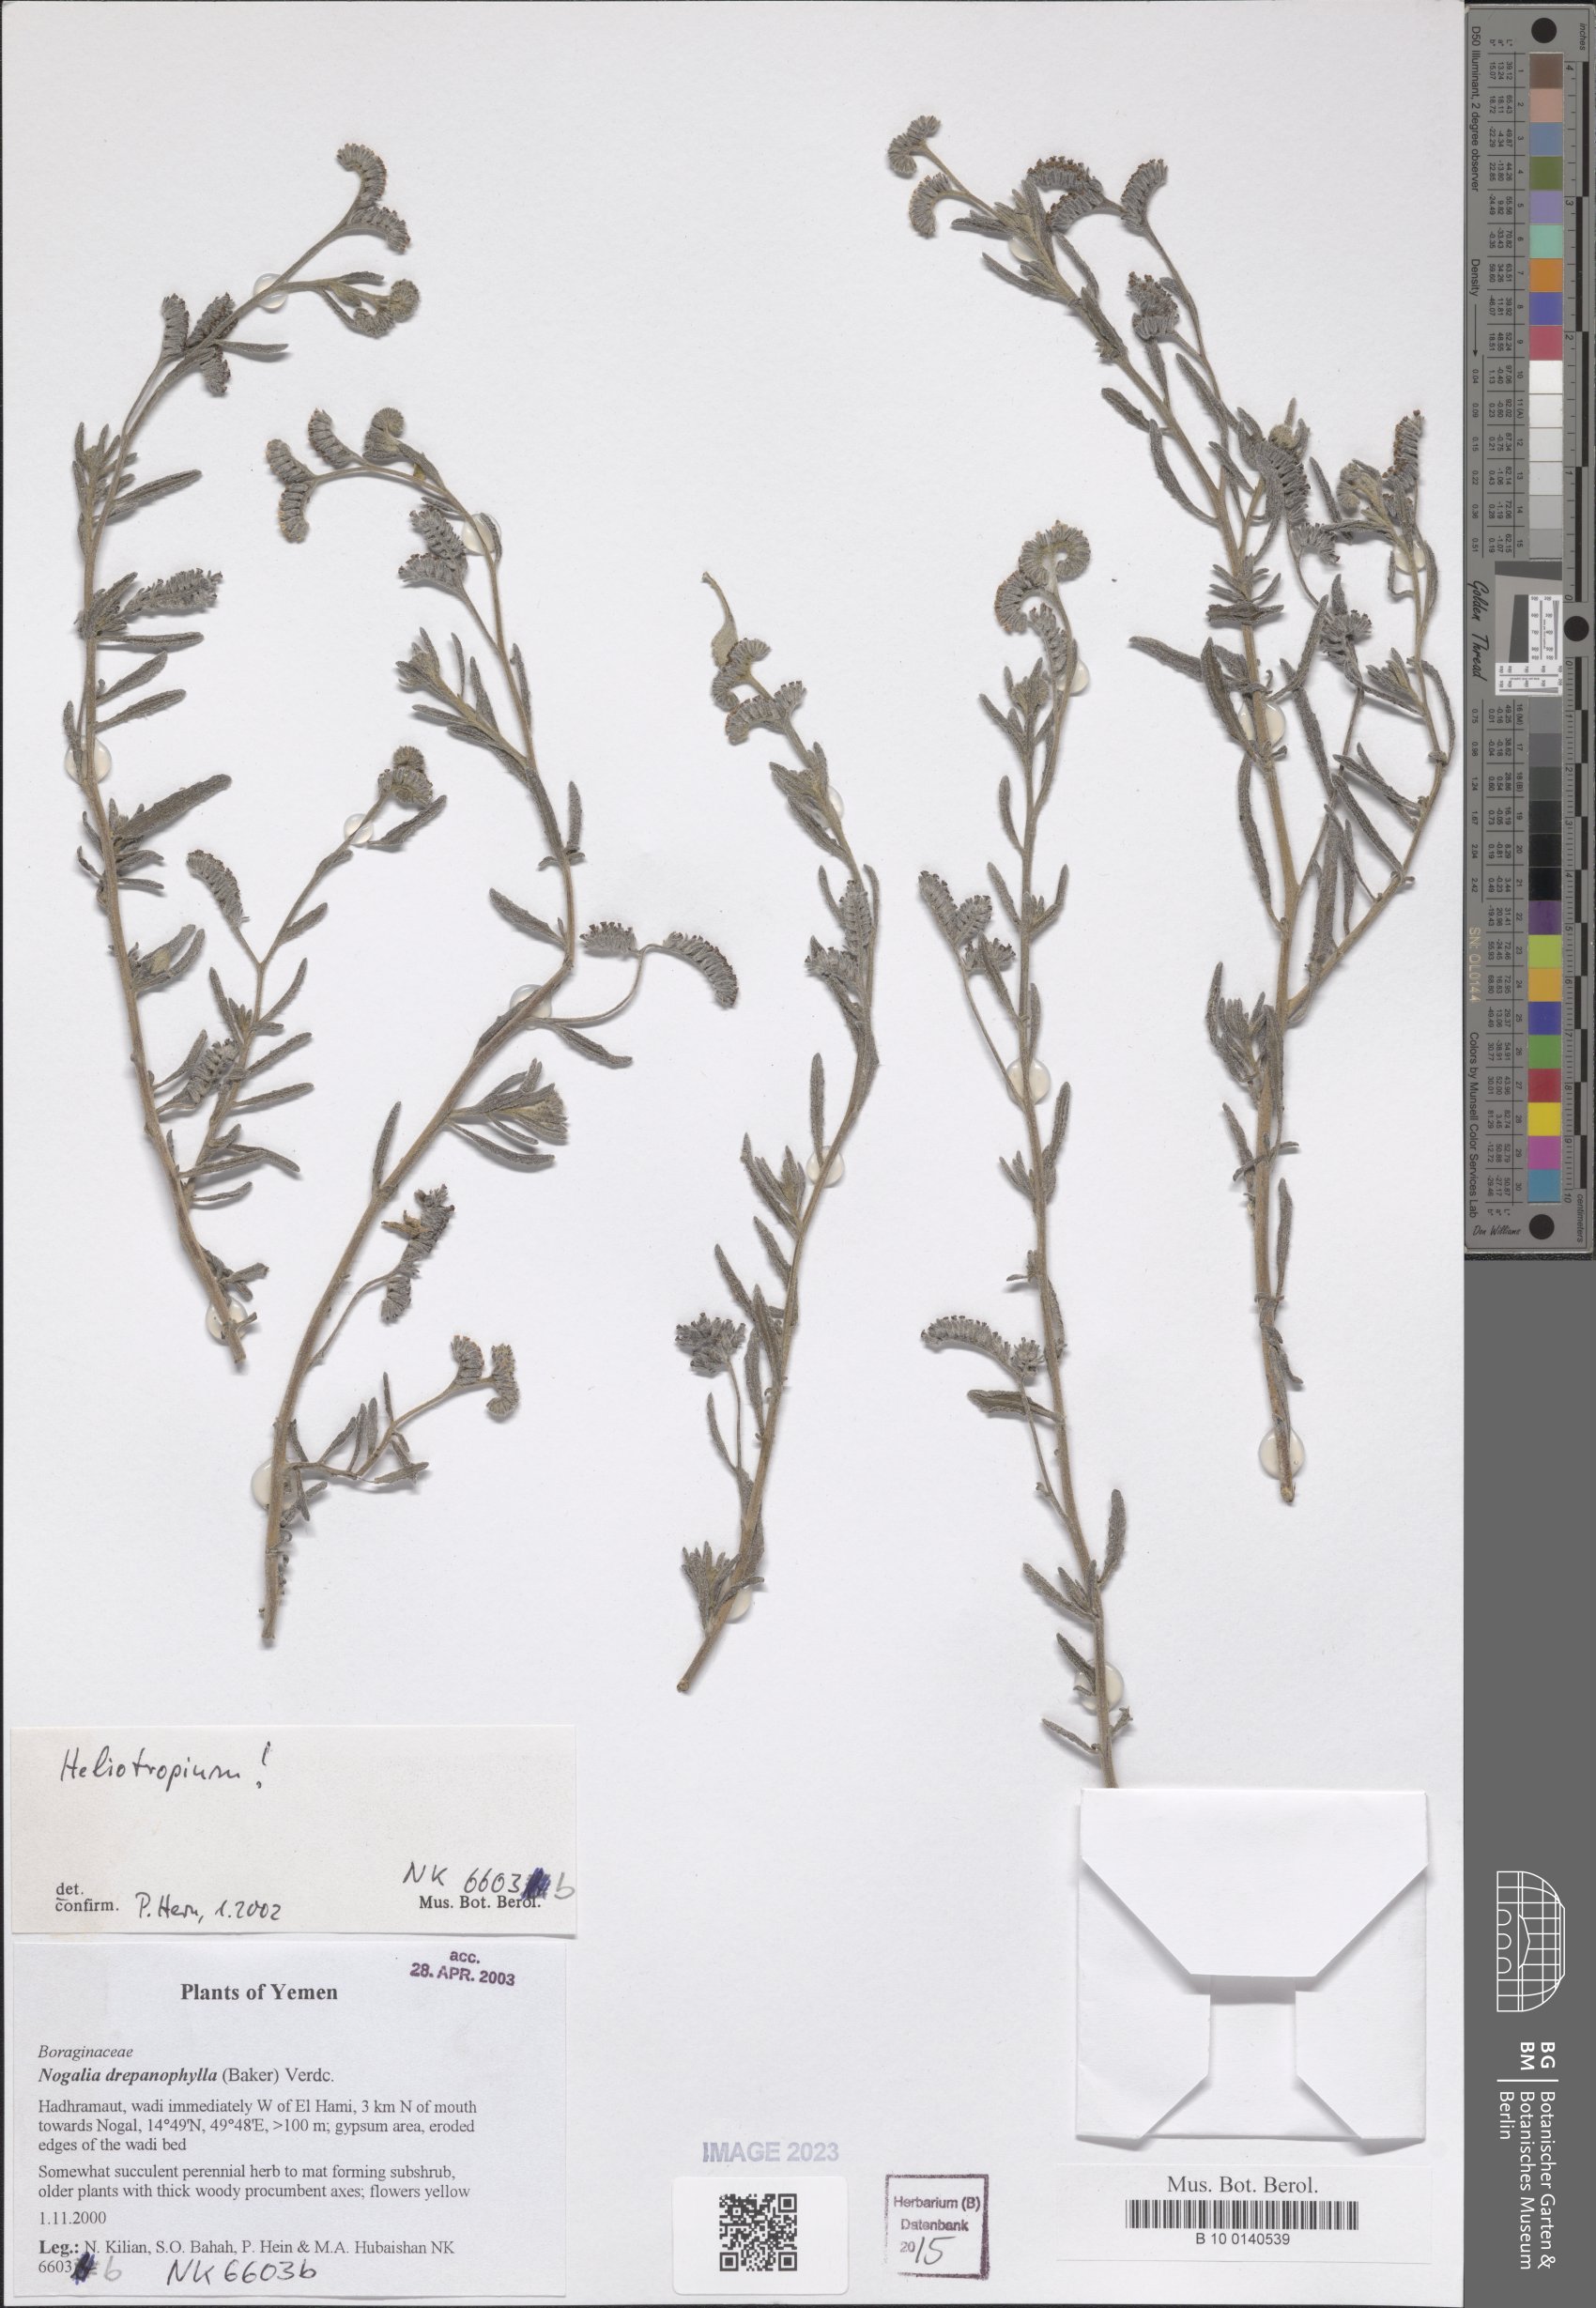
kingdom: Plantae
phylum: Tracheophyta
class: Magnoliopsida
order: Boraginales
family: Heliotropiaceae
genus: Heliotropium
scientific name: Heliotropium
